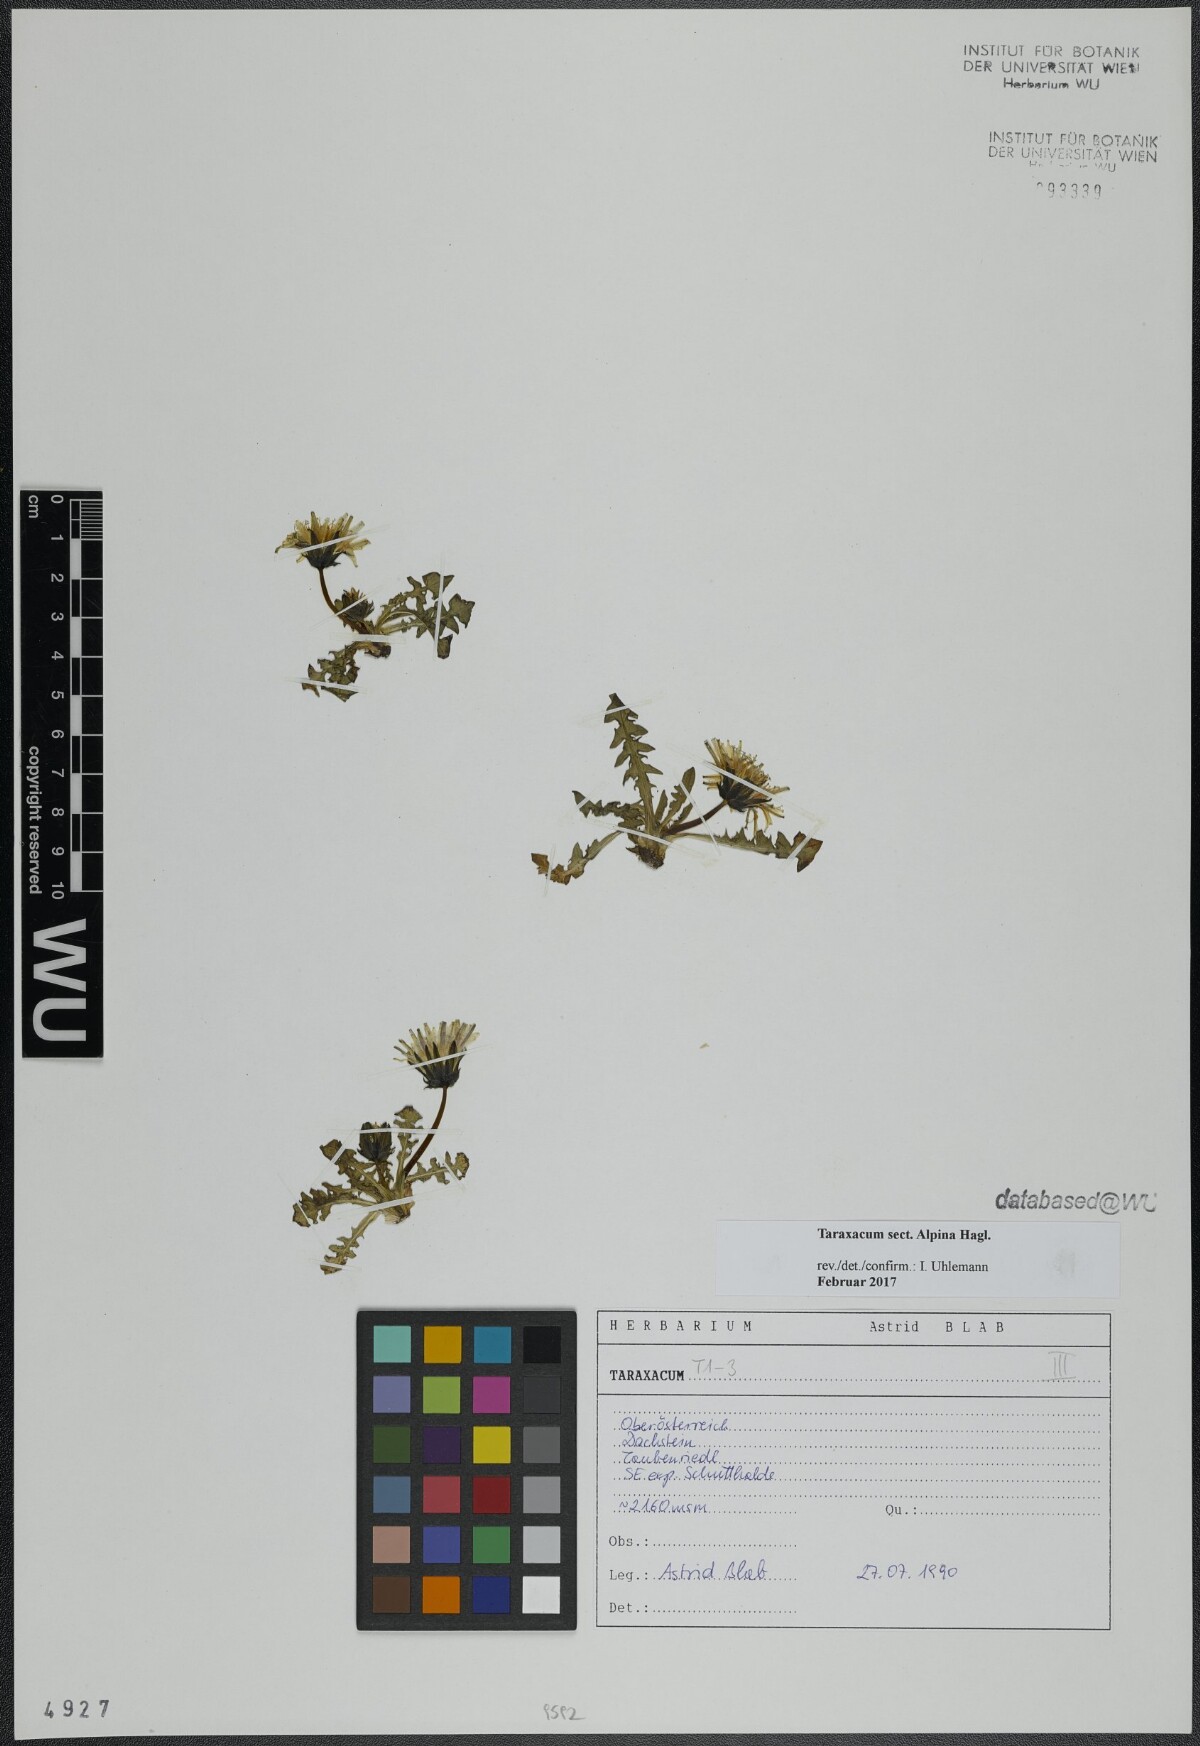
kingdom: Plantae
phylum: Tracheophyta
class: Magnoliopsida
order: Asterales
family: Asteraceae
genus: Taraxacum
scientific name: Taraxacum
